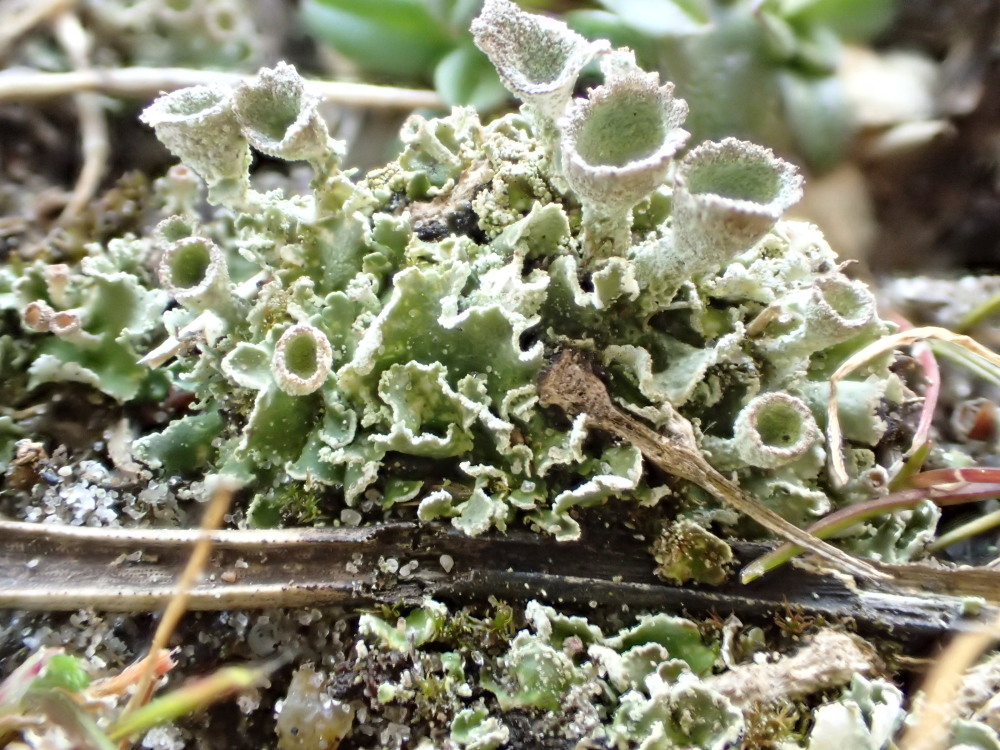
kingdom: Fungi
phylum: Ascomycota
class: Lecanoromycetes
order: Lecanorales
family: Cladoniaceae
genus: Cladonia
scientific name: Cladonia humilis
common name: lav bægerlav
